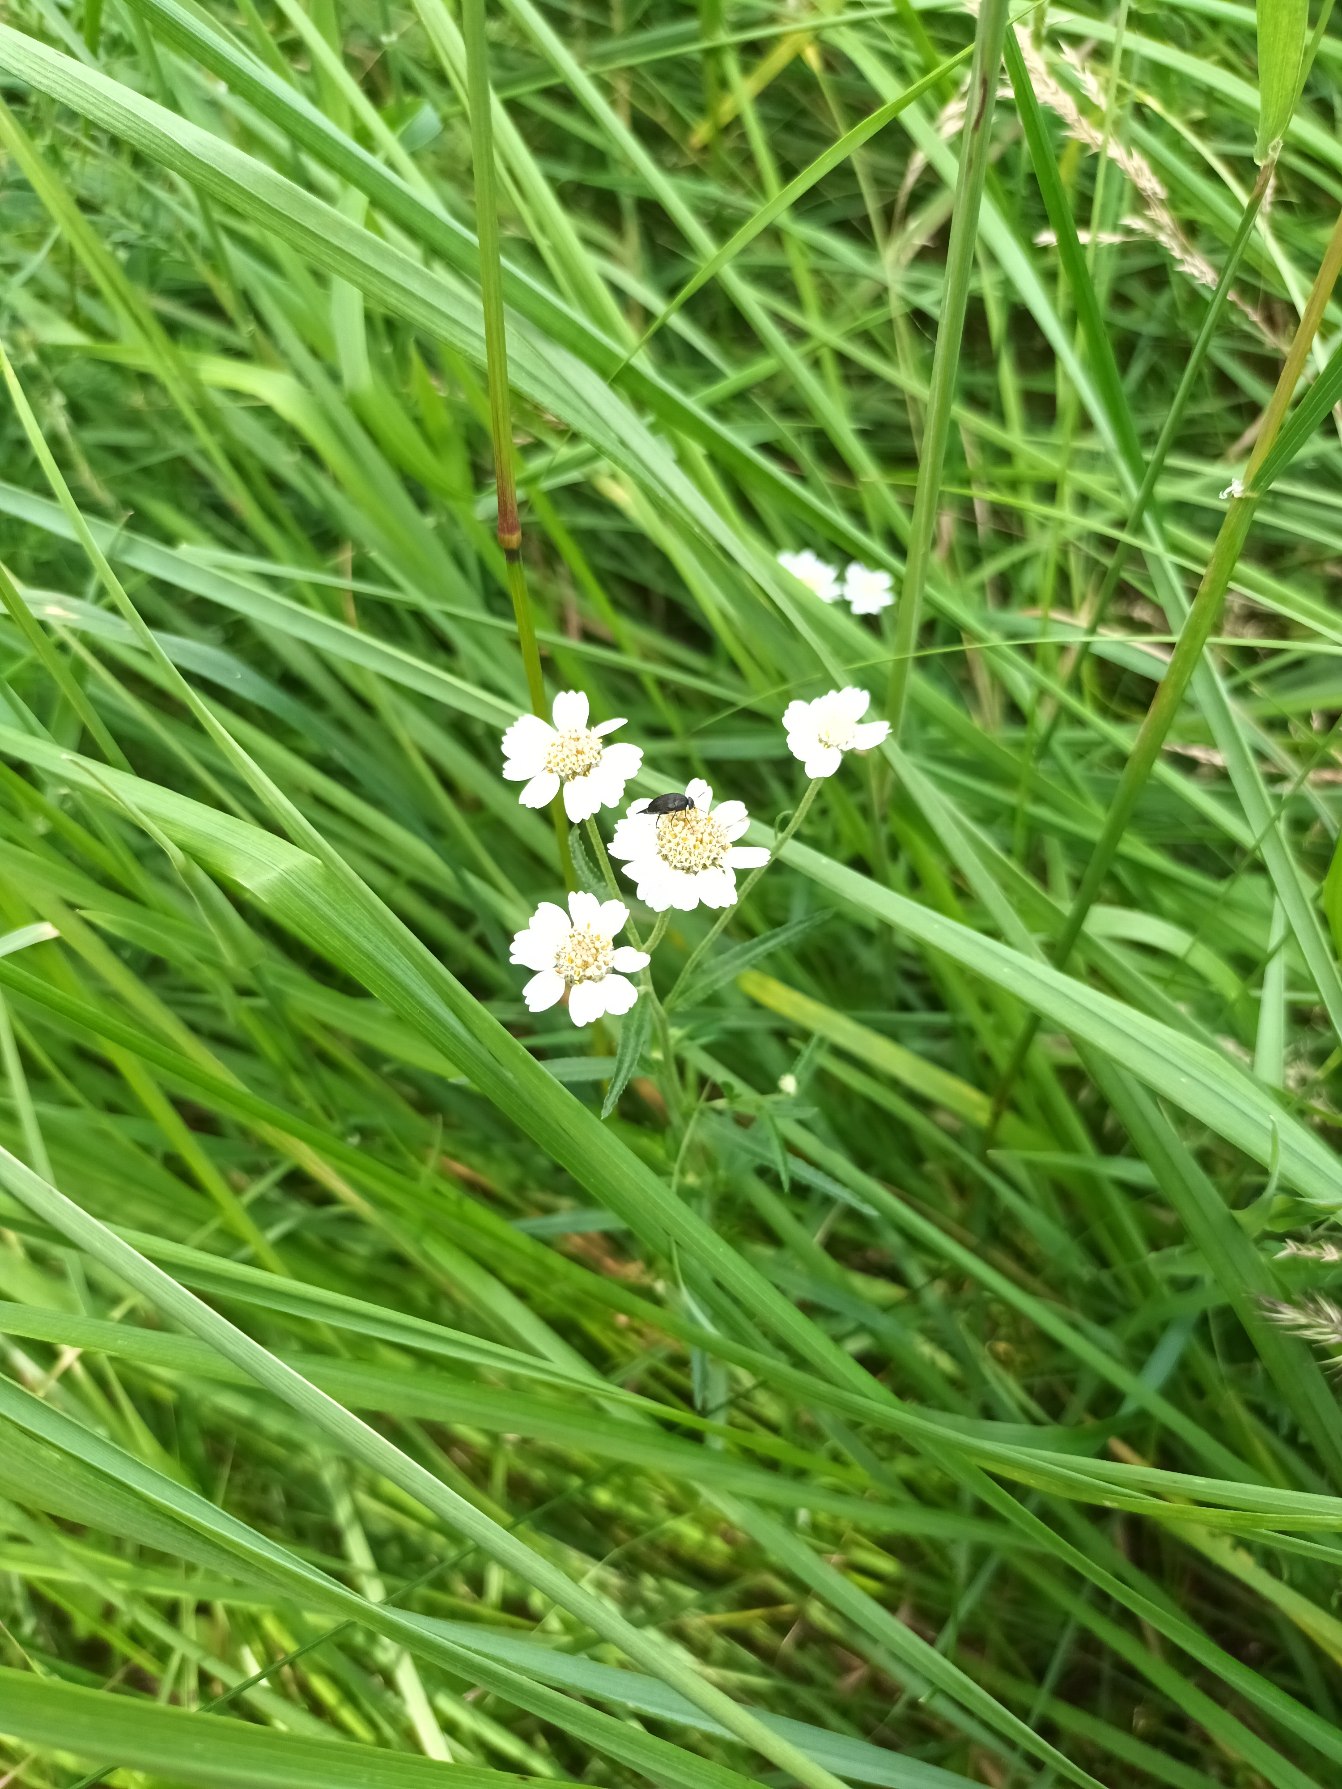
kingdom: Plantae
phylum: Tracheophyta
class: Magnoliopsida
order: Asterales
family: Asteraceae
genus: Achillea
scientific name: Achillea ptarmica
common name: Nyse-røllike
